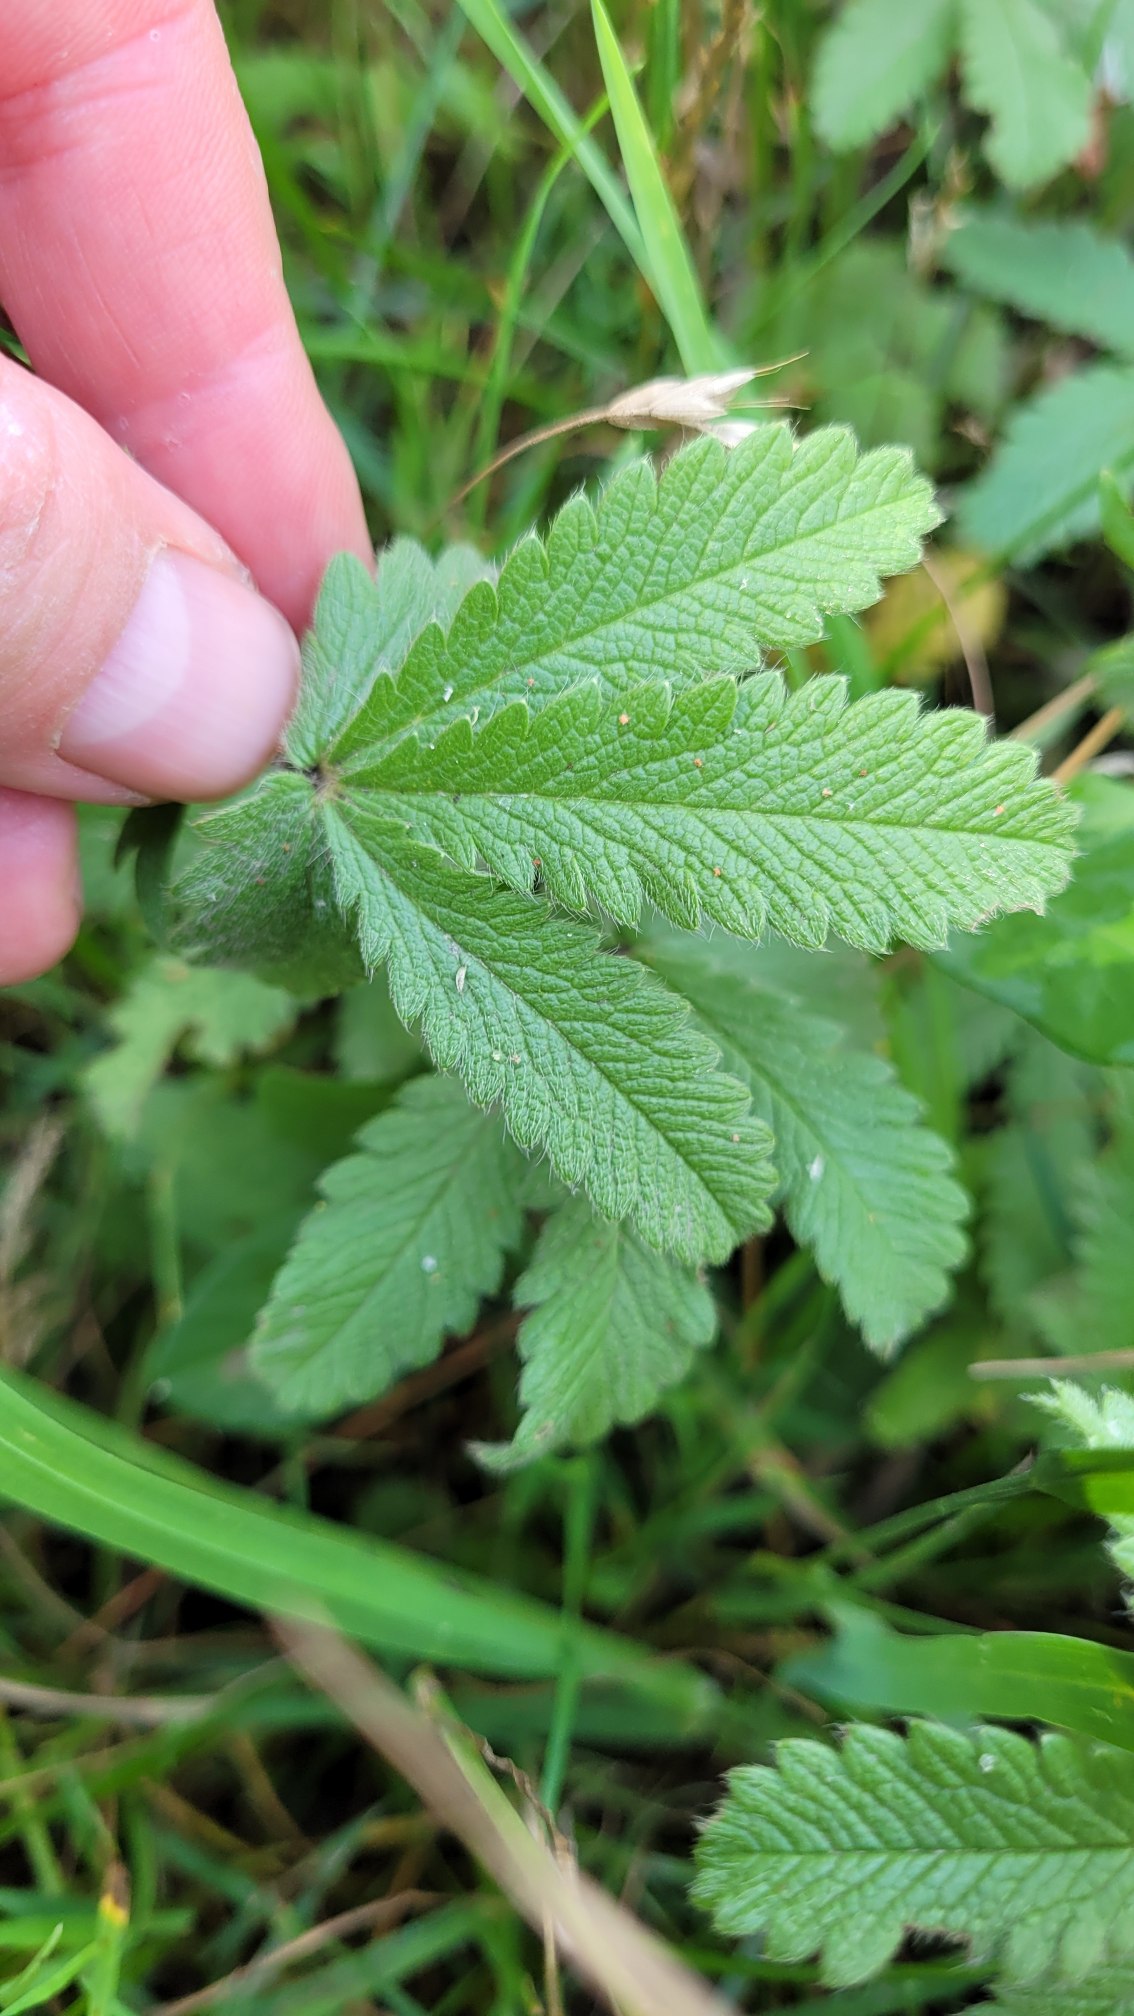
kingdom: Plantae
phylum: Tracheophyta
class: Magnoliopsida
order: Rosales
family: Rosaceae
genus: Potentilla
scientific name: Potentilla recta
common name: Rank potentil
